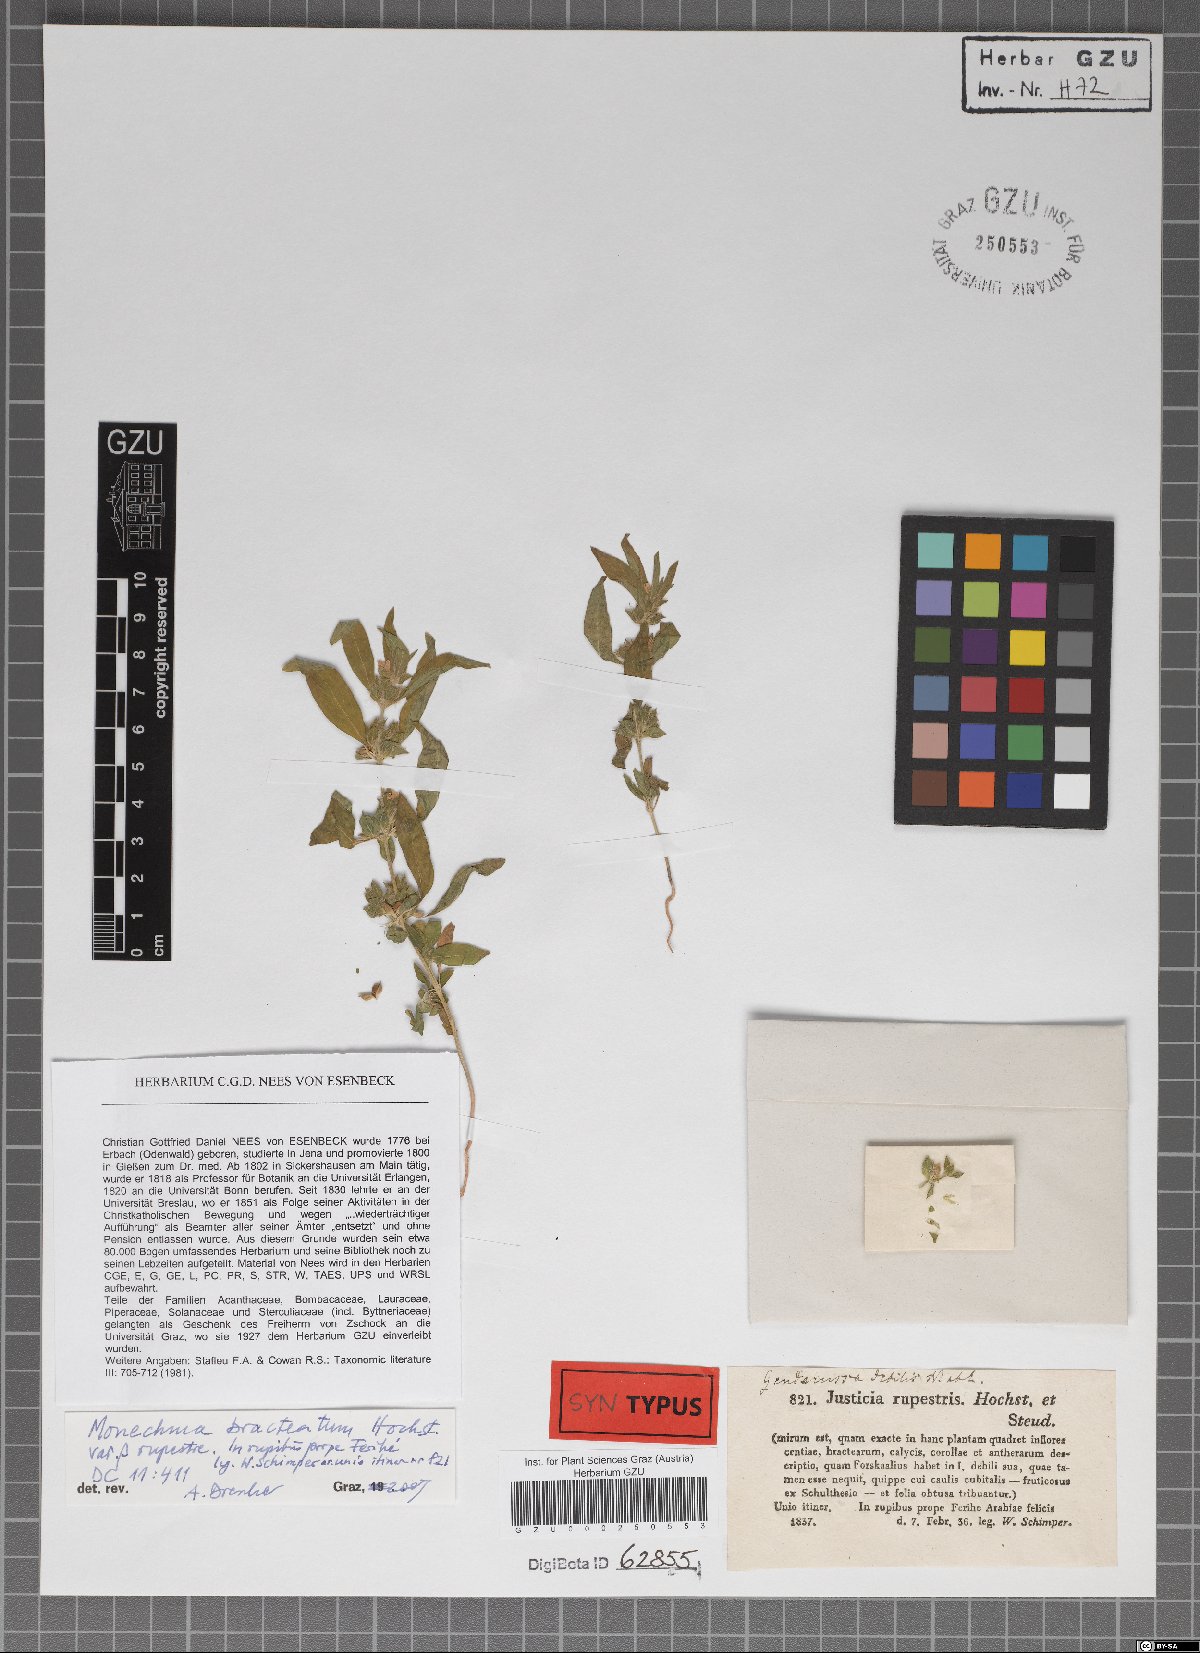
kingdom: Plantae
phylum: Tracheophyta
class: Magnoliopsida
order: Lamiales
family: Acanthaceae
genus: Monechma
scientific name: Monechma bracteatum
